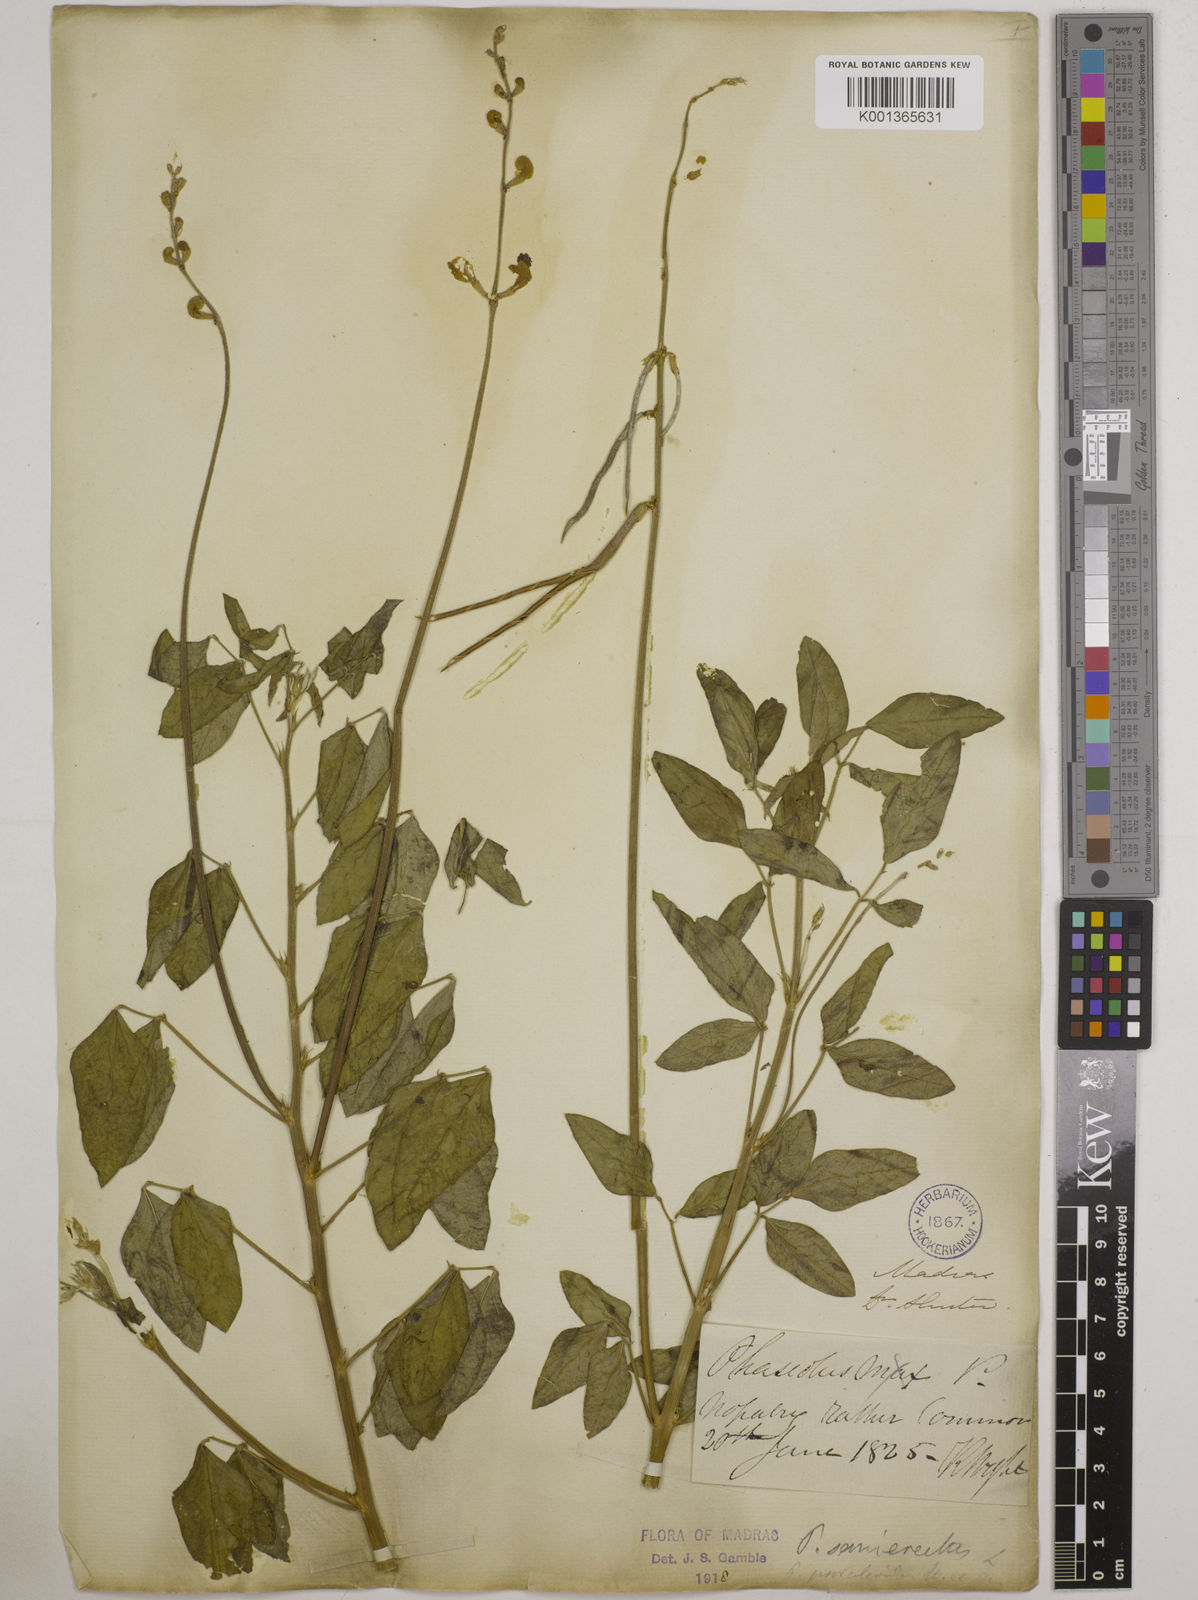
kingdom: Plantae
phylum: Tracheophyta
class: Magnoliopsida
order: Fabales
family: Fabaceae
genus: Macroptilium
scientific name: Macroptilium lathyroides
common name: Wild bushbean
